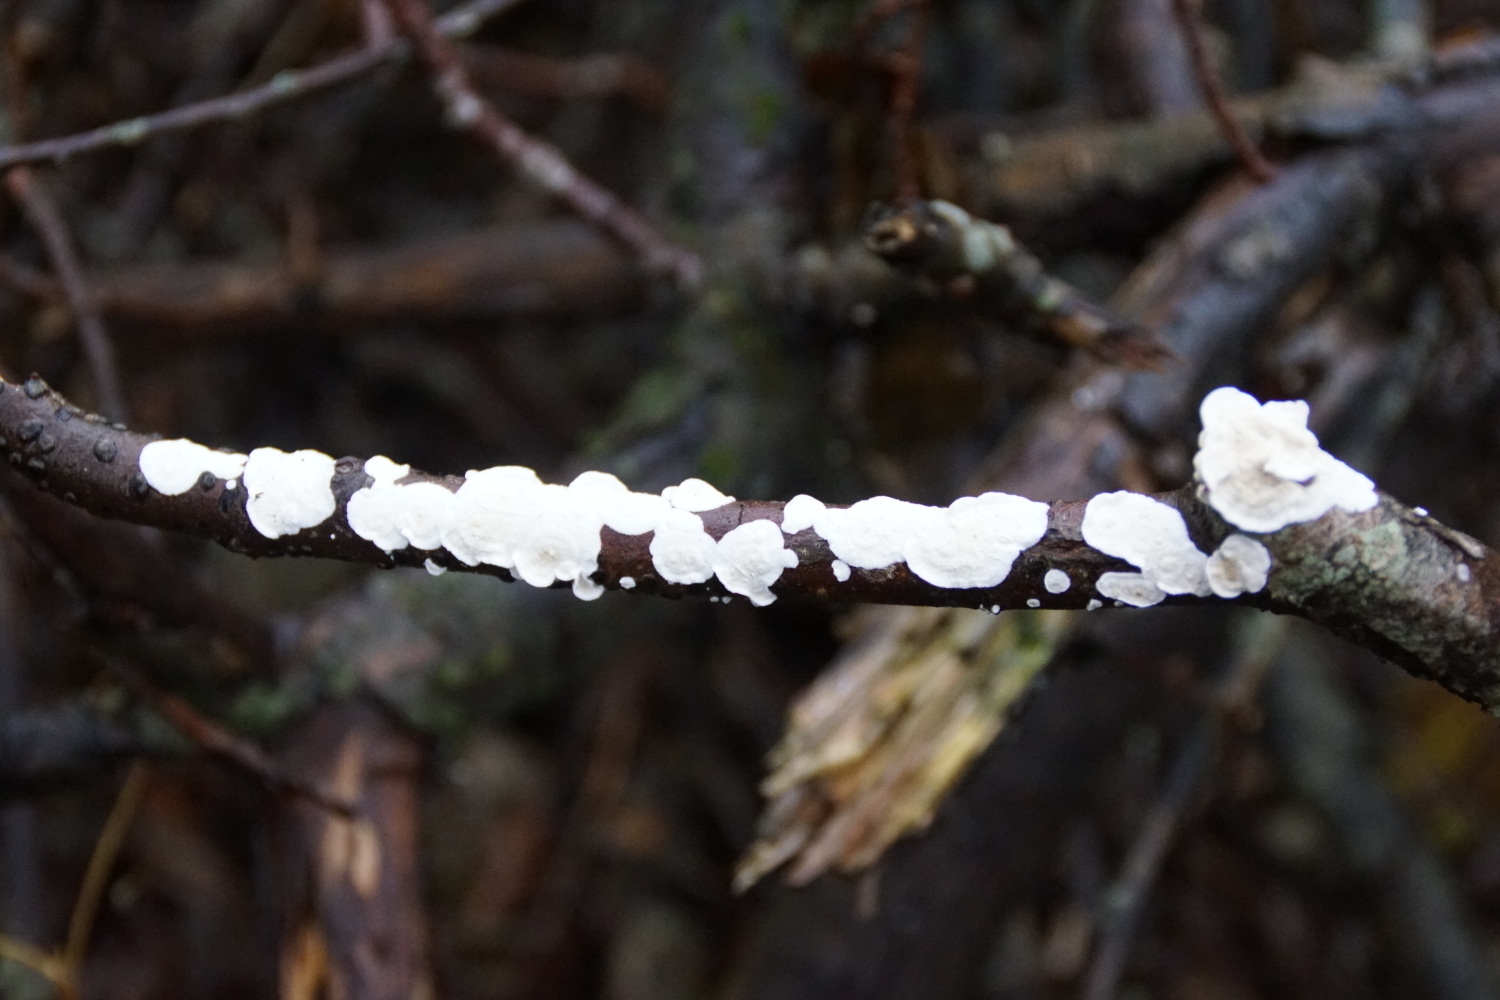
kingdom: Fungi
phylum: Basidiomycota
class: Agaricomycetes
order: Polyporales
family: Irpicaceae
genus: Byssomerulius
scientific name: Byssomerulius corium
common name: læder-åresvamp
